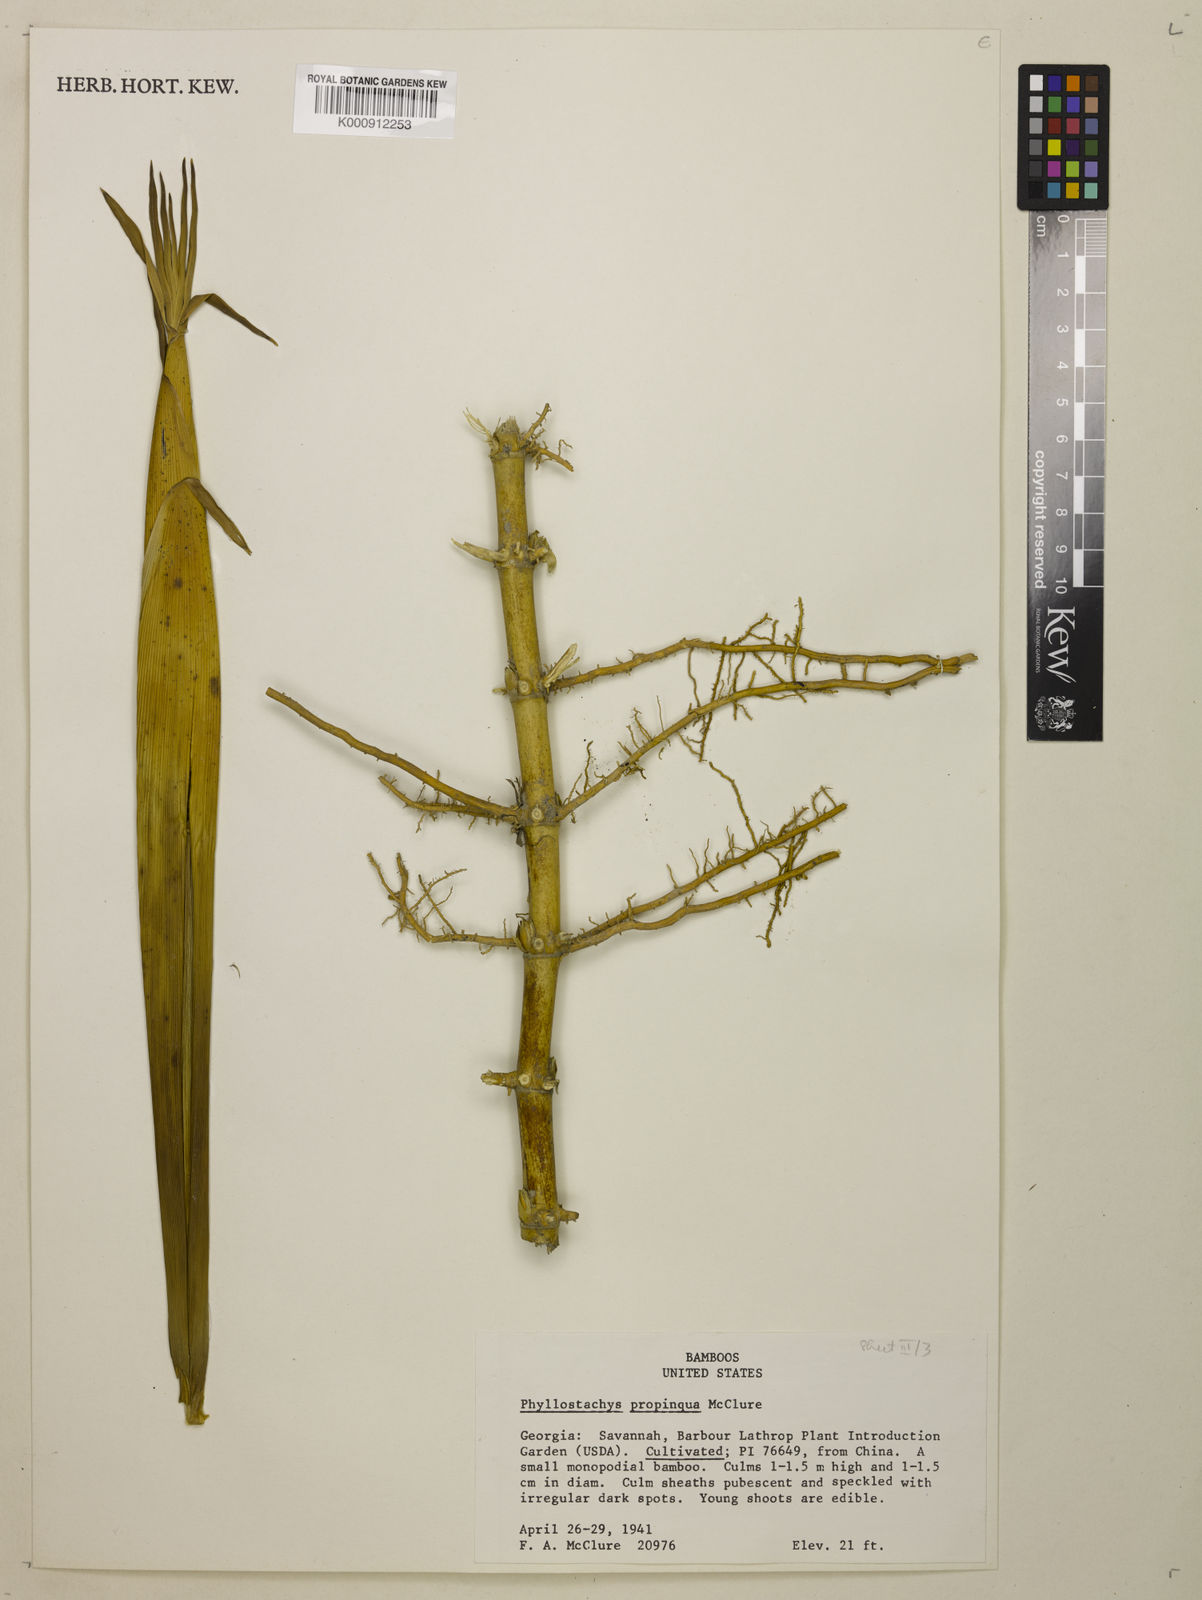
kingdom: Plantae
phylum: Tracheophyta
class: Liliopsida
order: Poales
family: Poaceae
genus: Phyllostachys
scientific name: Phyllostachys propinqua
